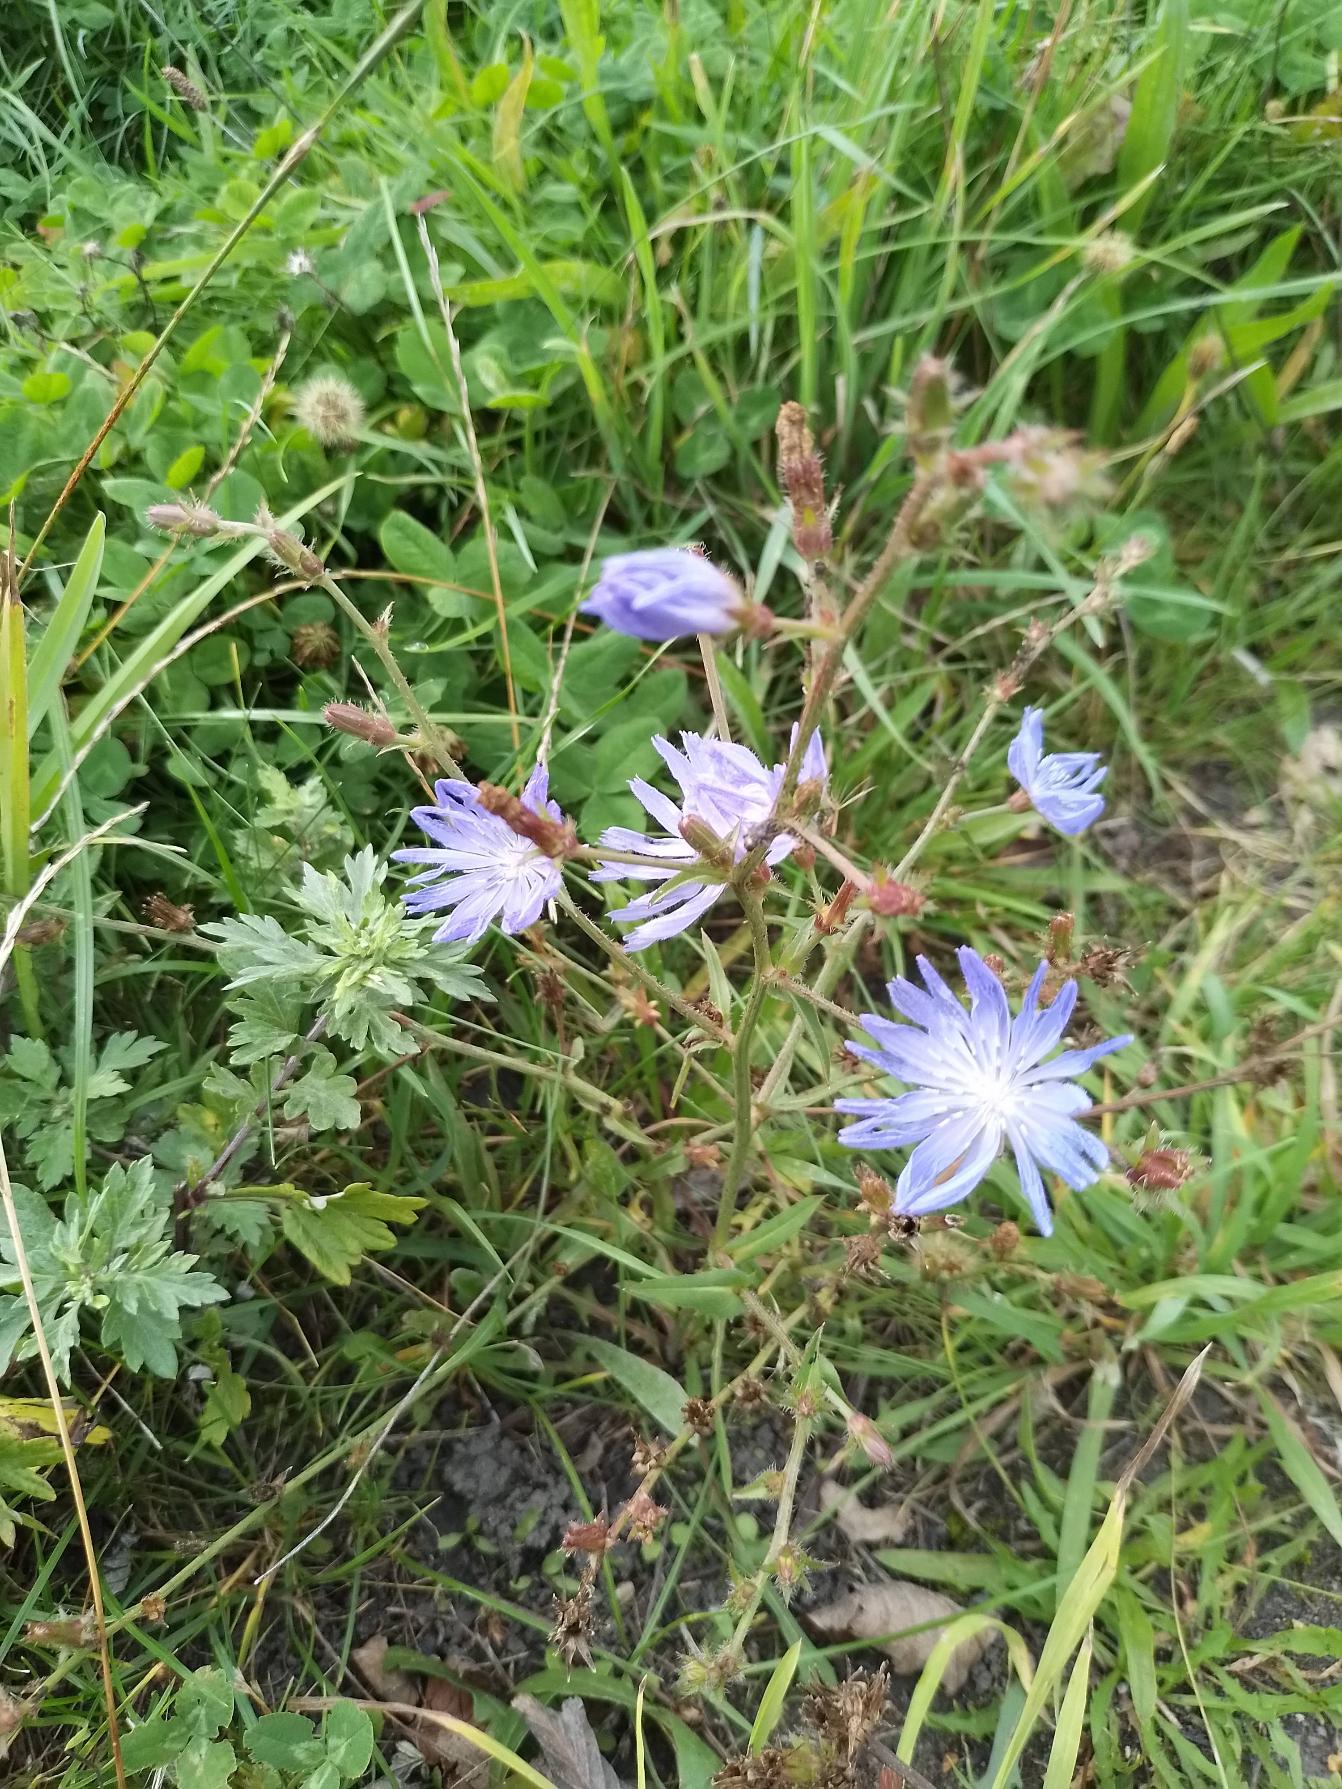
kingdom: Plantae
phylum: Tracheophyta
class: Magnoliopsida
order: Asterales
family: Asteraceae
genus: Cichorium
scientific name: Cichorium intybus
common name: Cikorie
